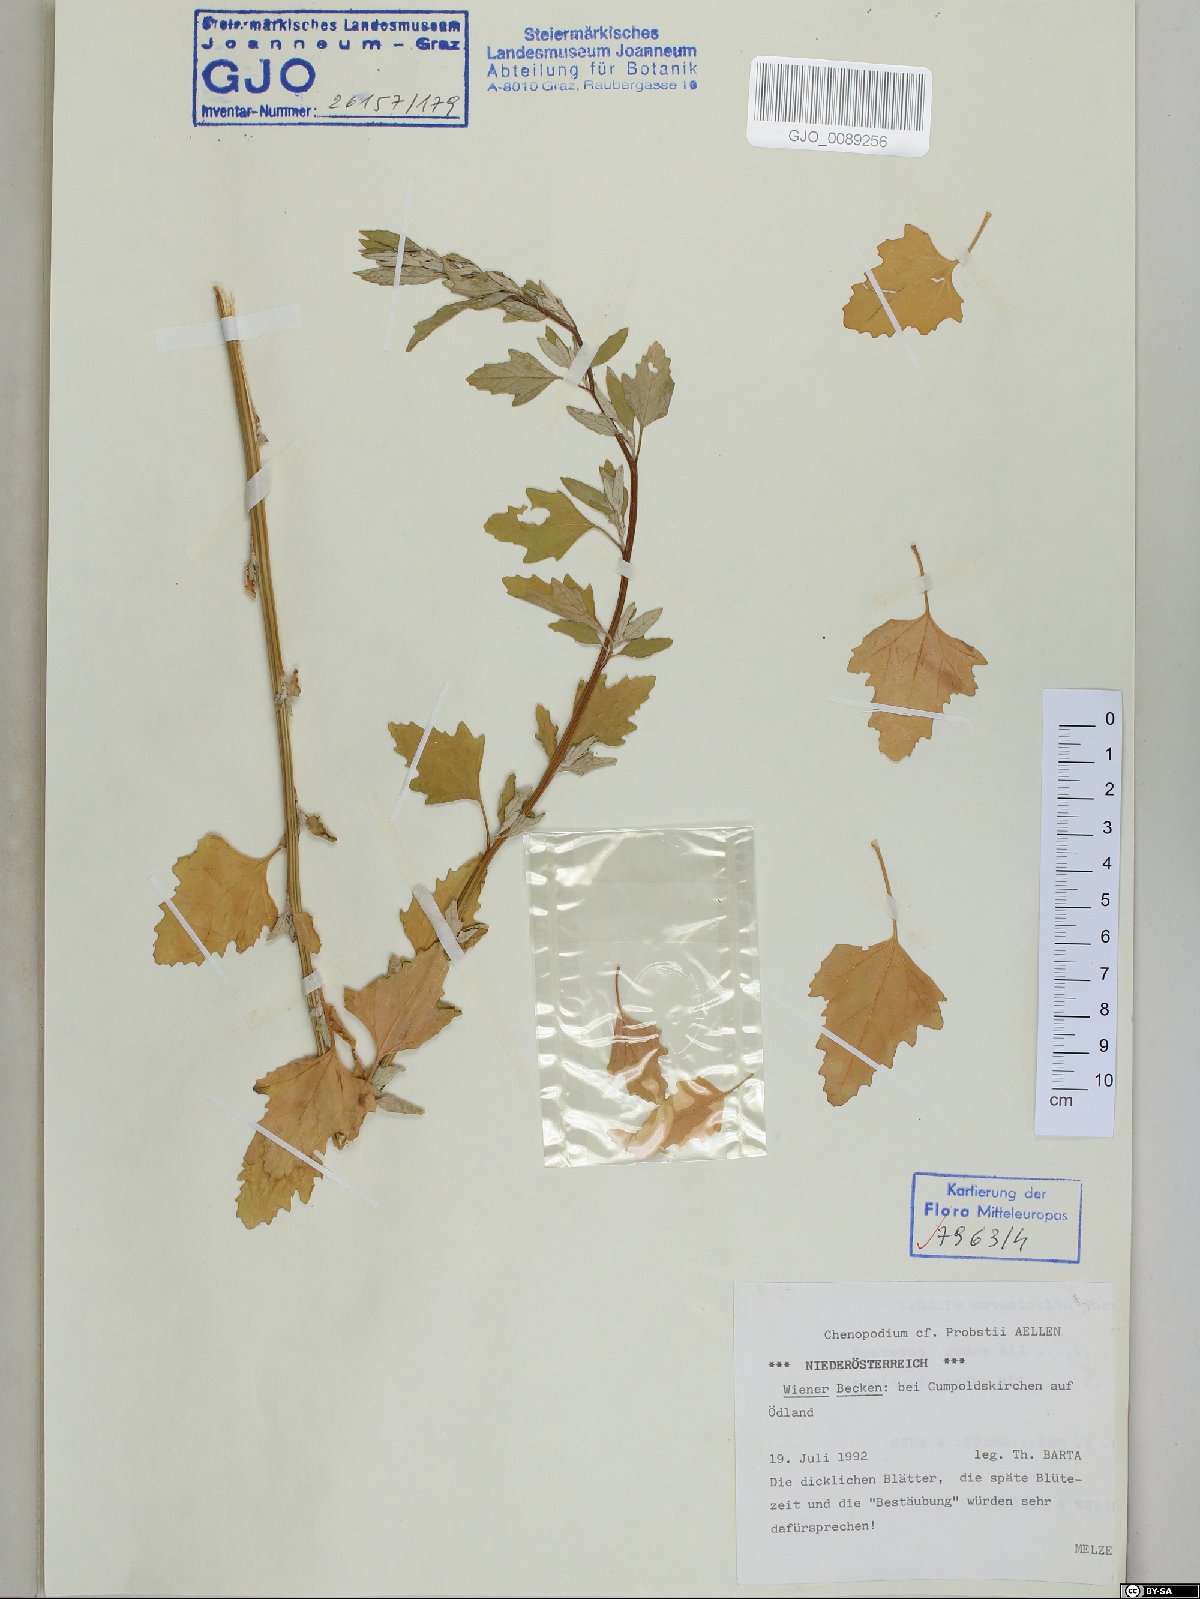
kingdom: Plantae
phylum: Tracheophyta
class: Magnoliopsida
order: Caryophyllales
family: Amaranthaceae
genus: Chenopodium
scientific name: Chenopodium probstii
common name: Probst's goosefoot
